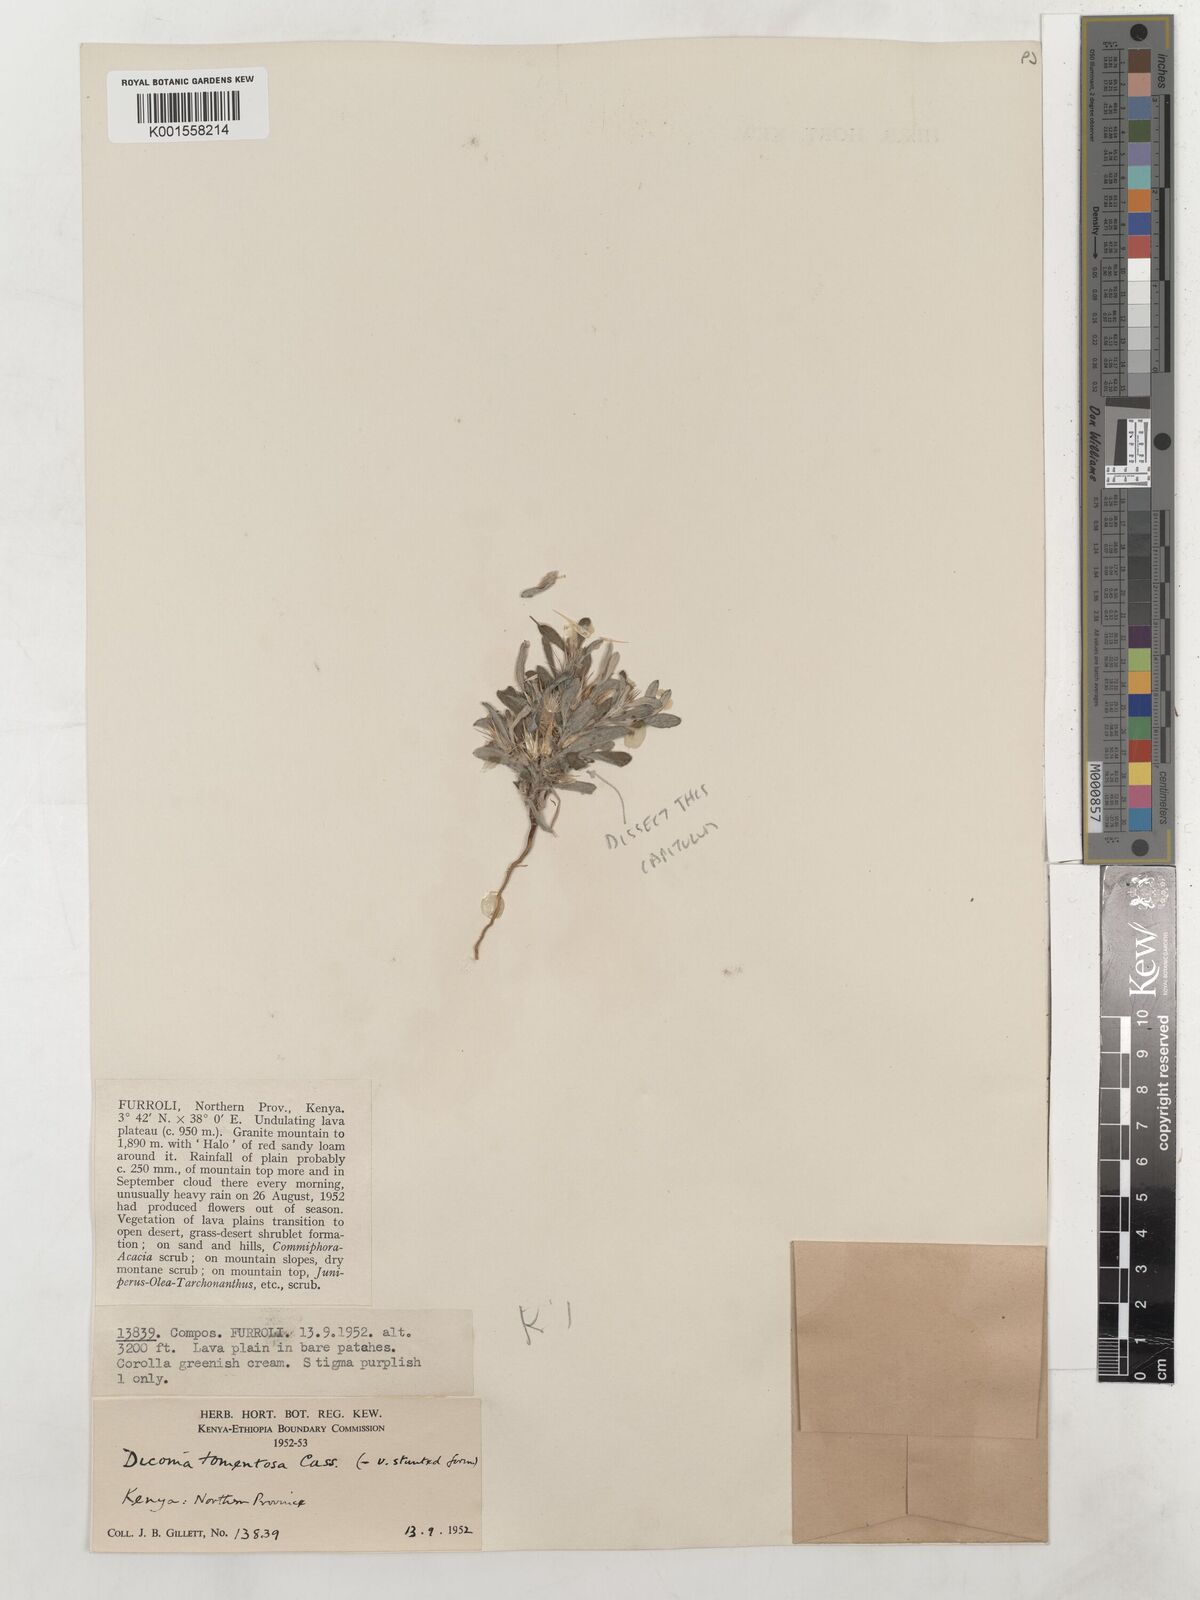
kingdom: Plantae
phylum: Tracheophyta
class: Magnoliopsida
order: Asterales
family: Asteraceae
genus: Dicoma
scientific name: Dicoma tomentosa
